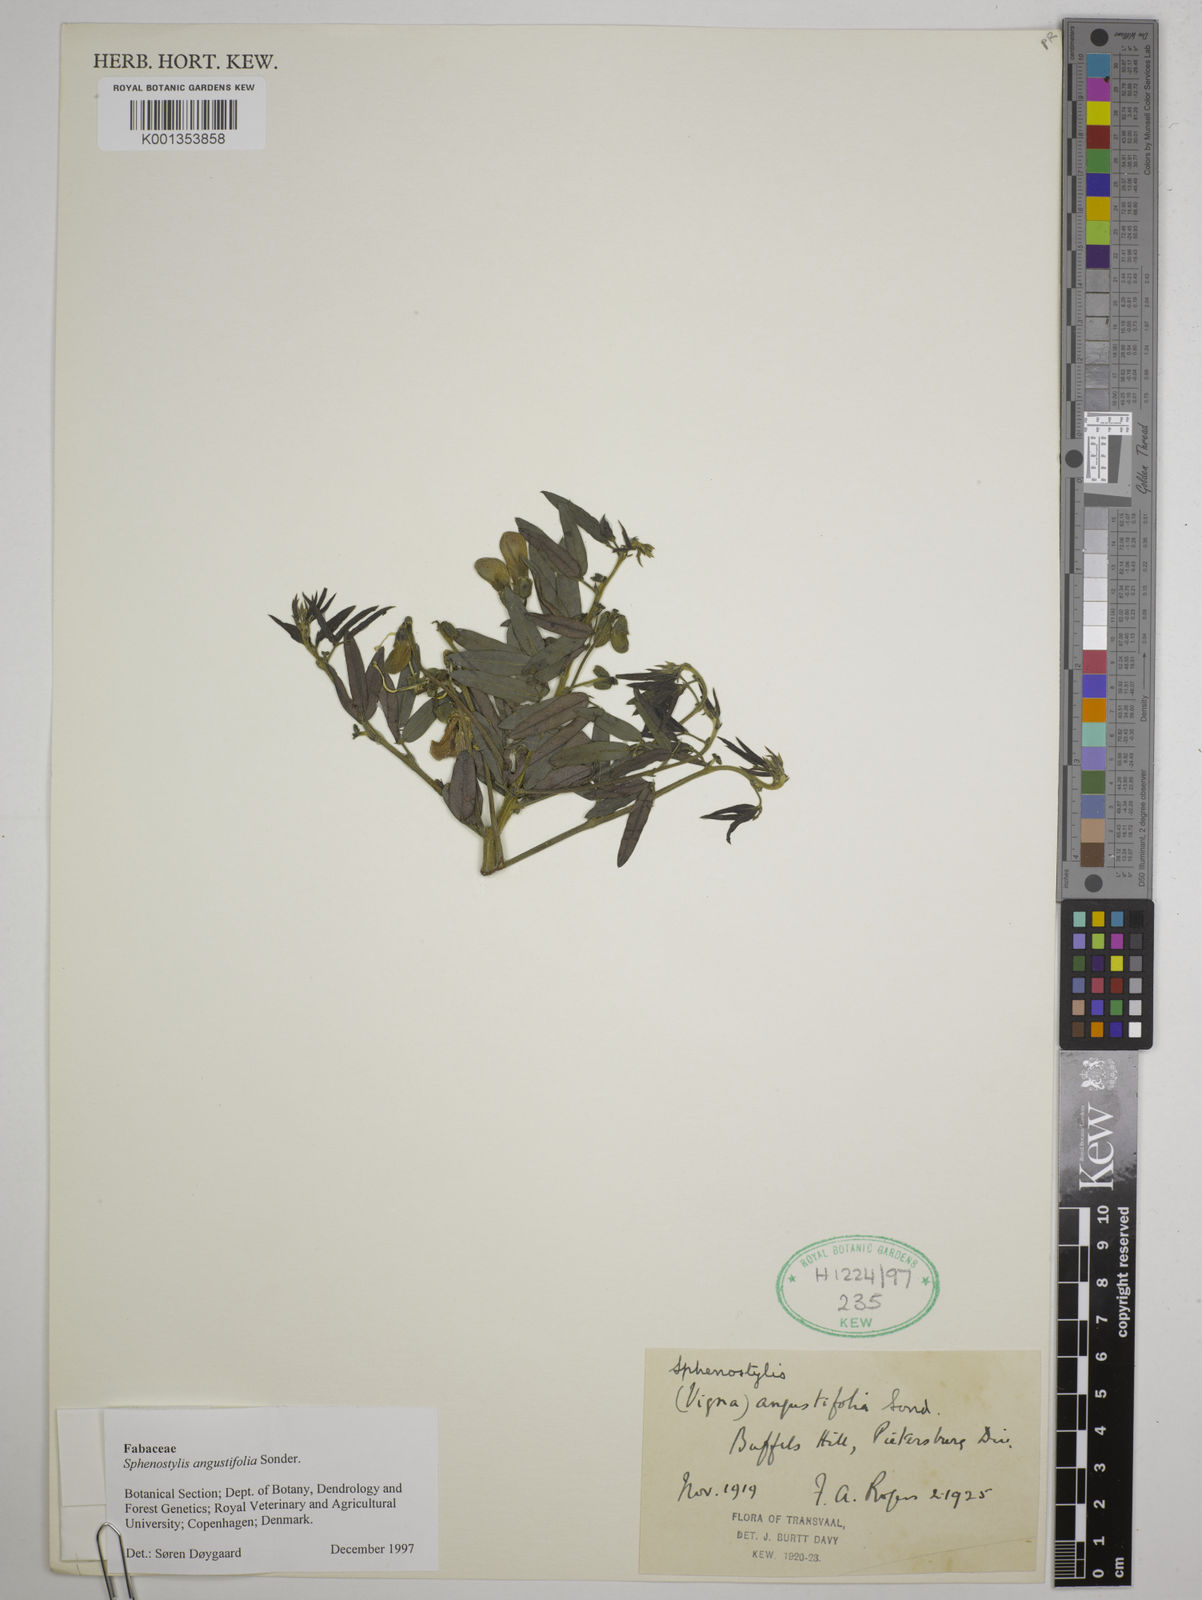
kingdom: Plantae
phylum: Tracheophyta
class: Magnoliopsida
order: Fabales
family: Fabaceae
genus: Sphenostylis
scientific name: Sphenostylis angustifolia
